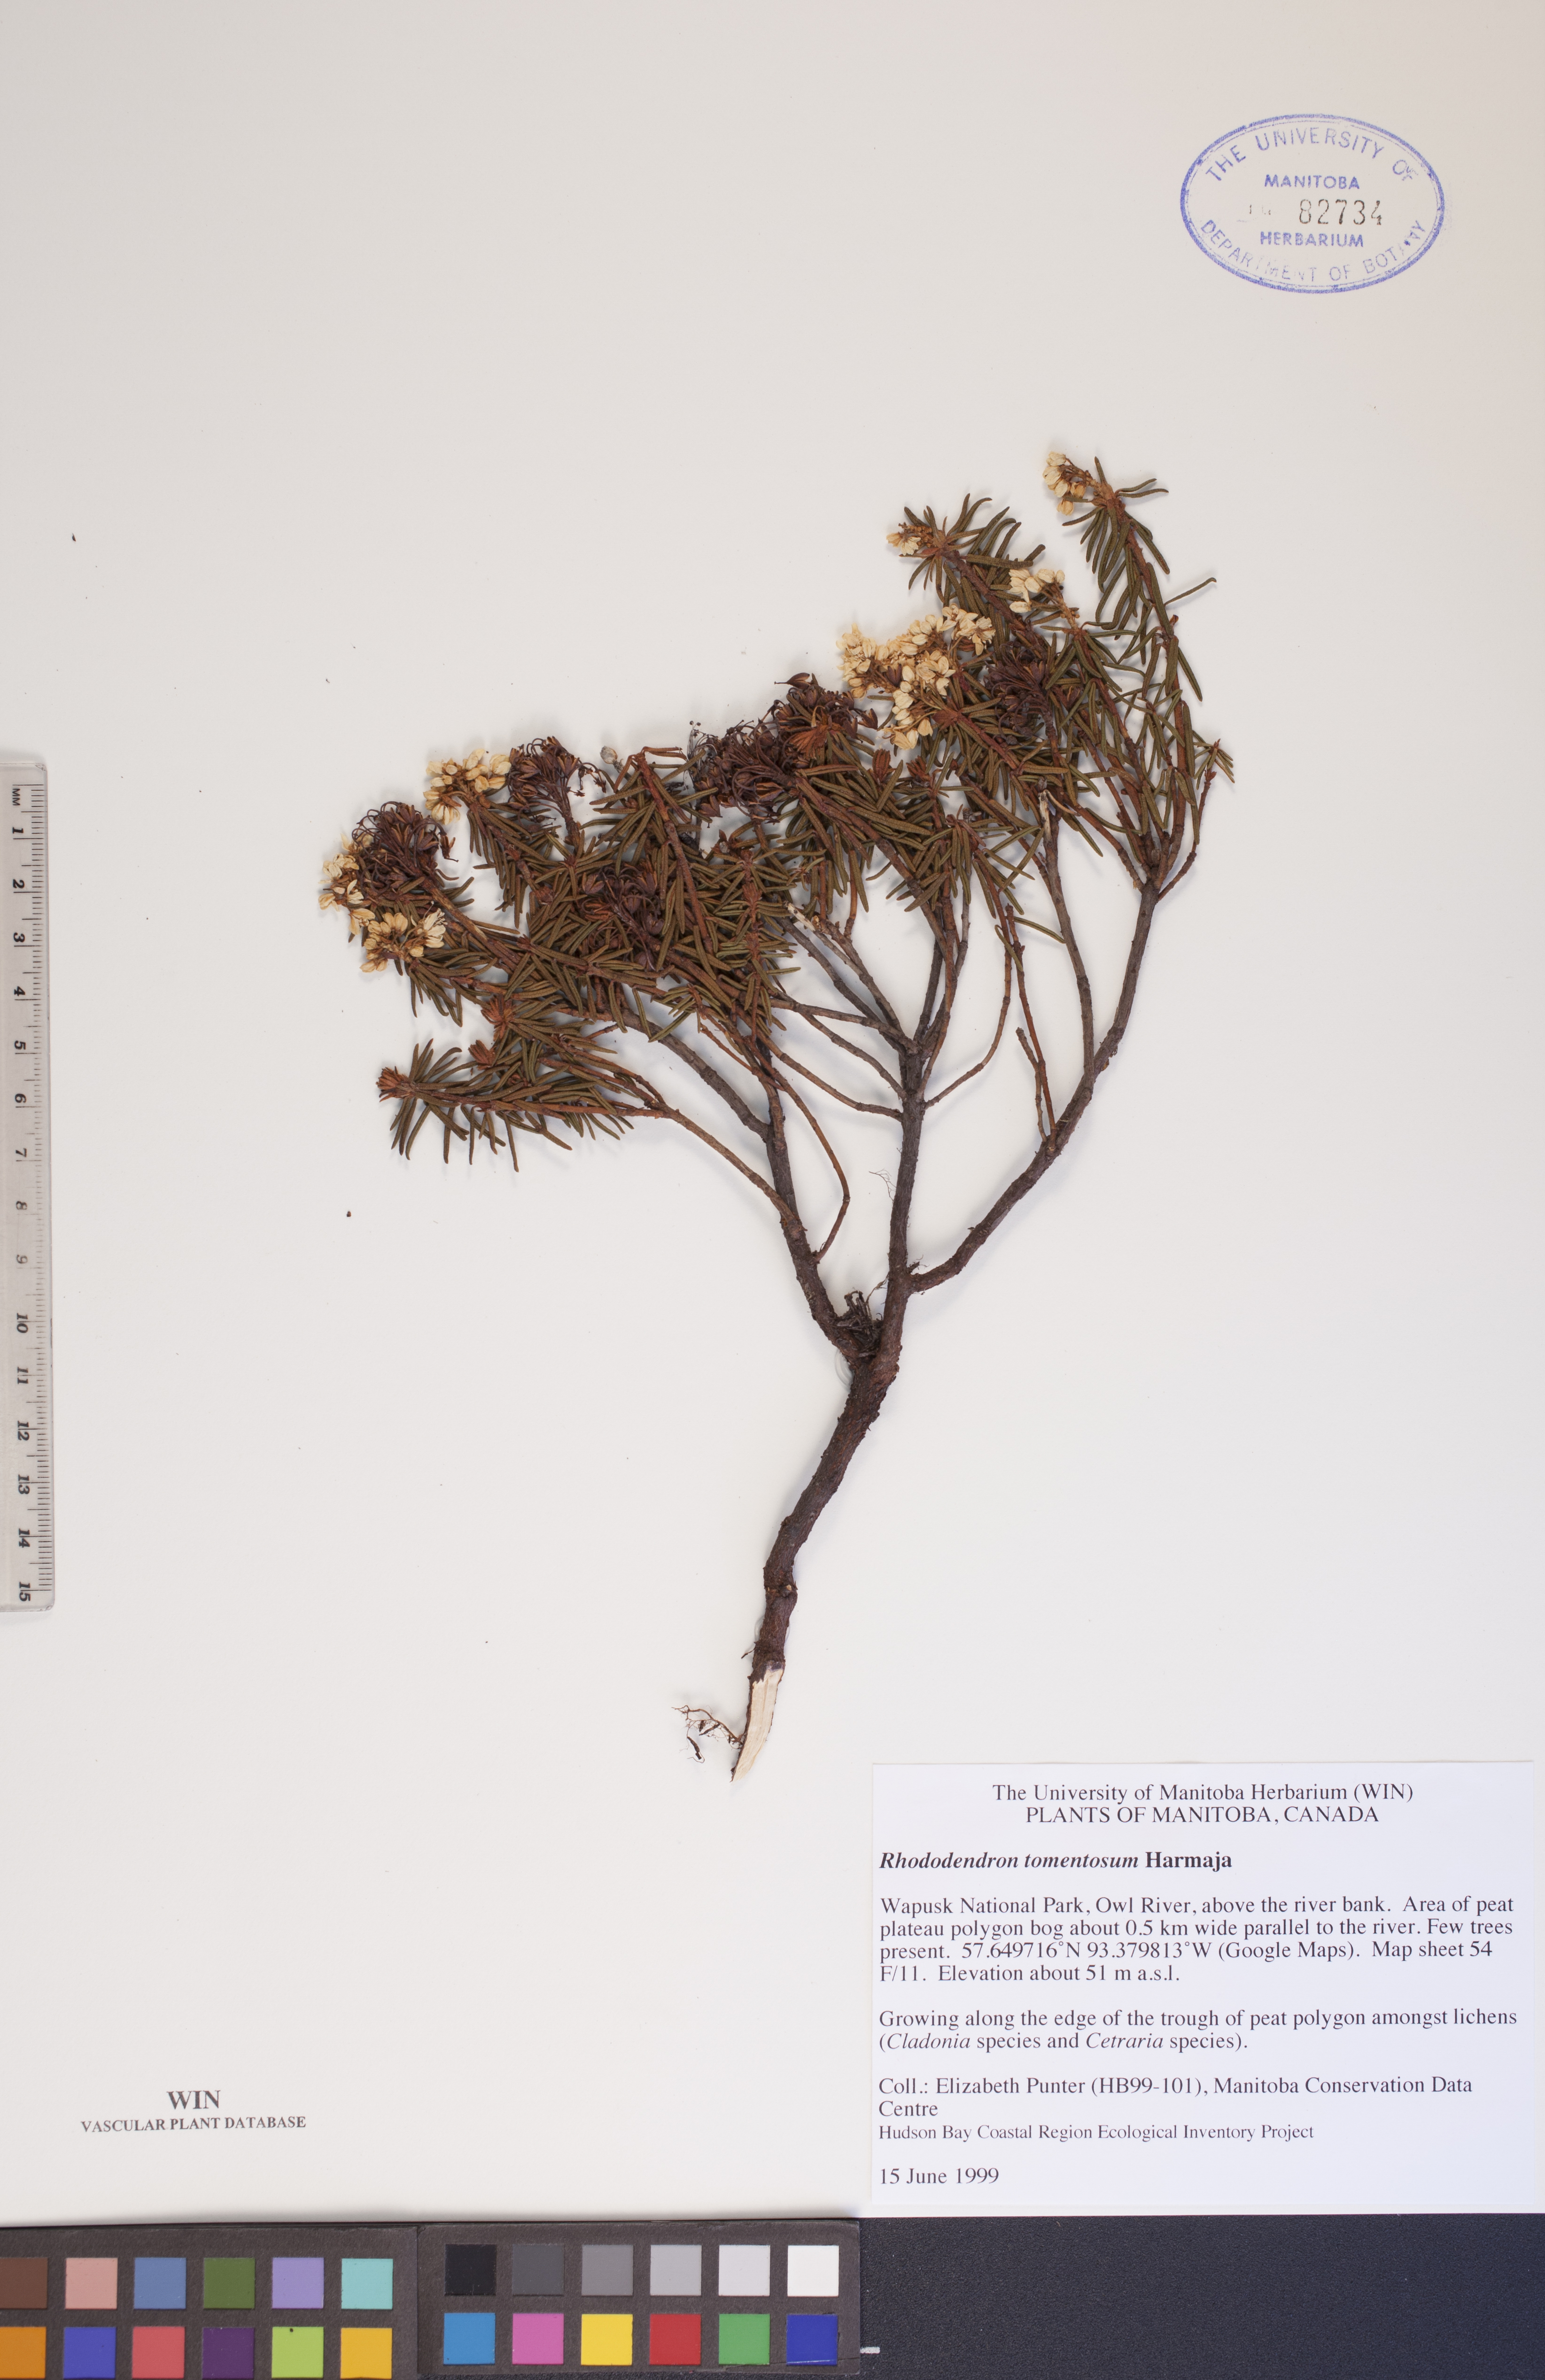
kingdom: Plantae
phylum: Tracheophyta
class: Magnoliopsida
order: Ericales
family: Ericaceae
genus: Rhododendron
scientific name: Rhododendron tomentosum
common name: Marsh labrador tea
